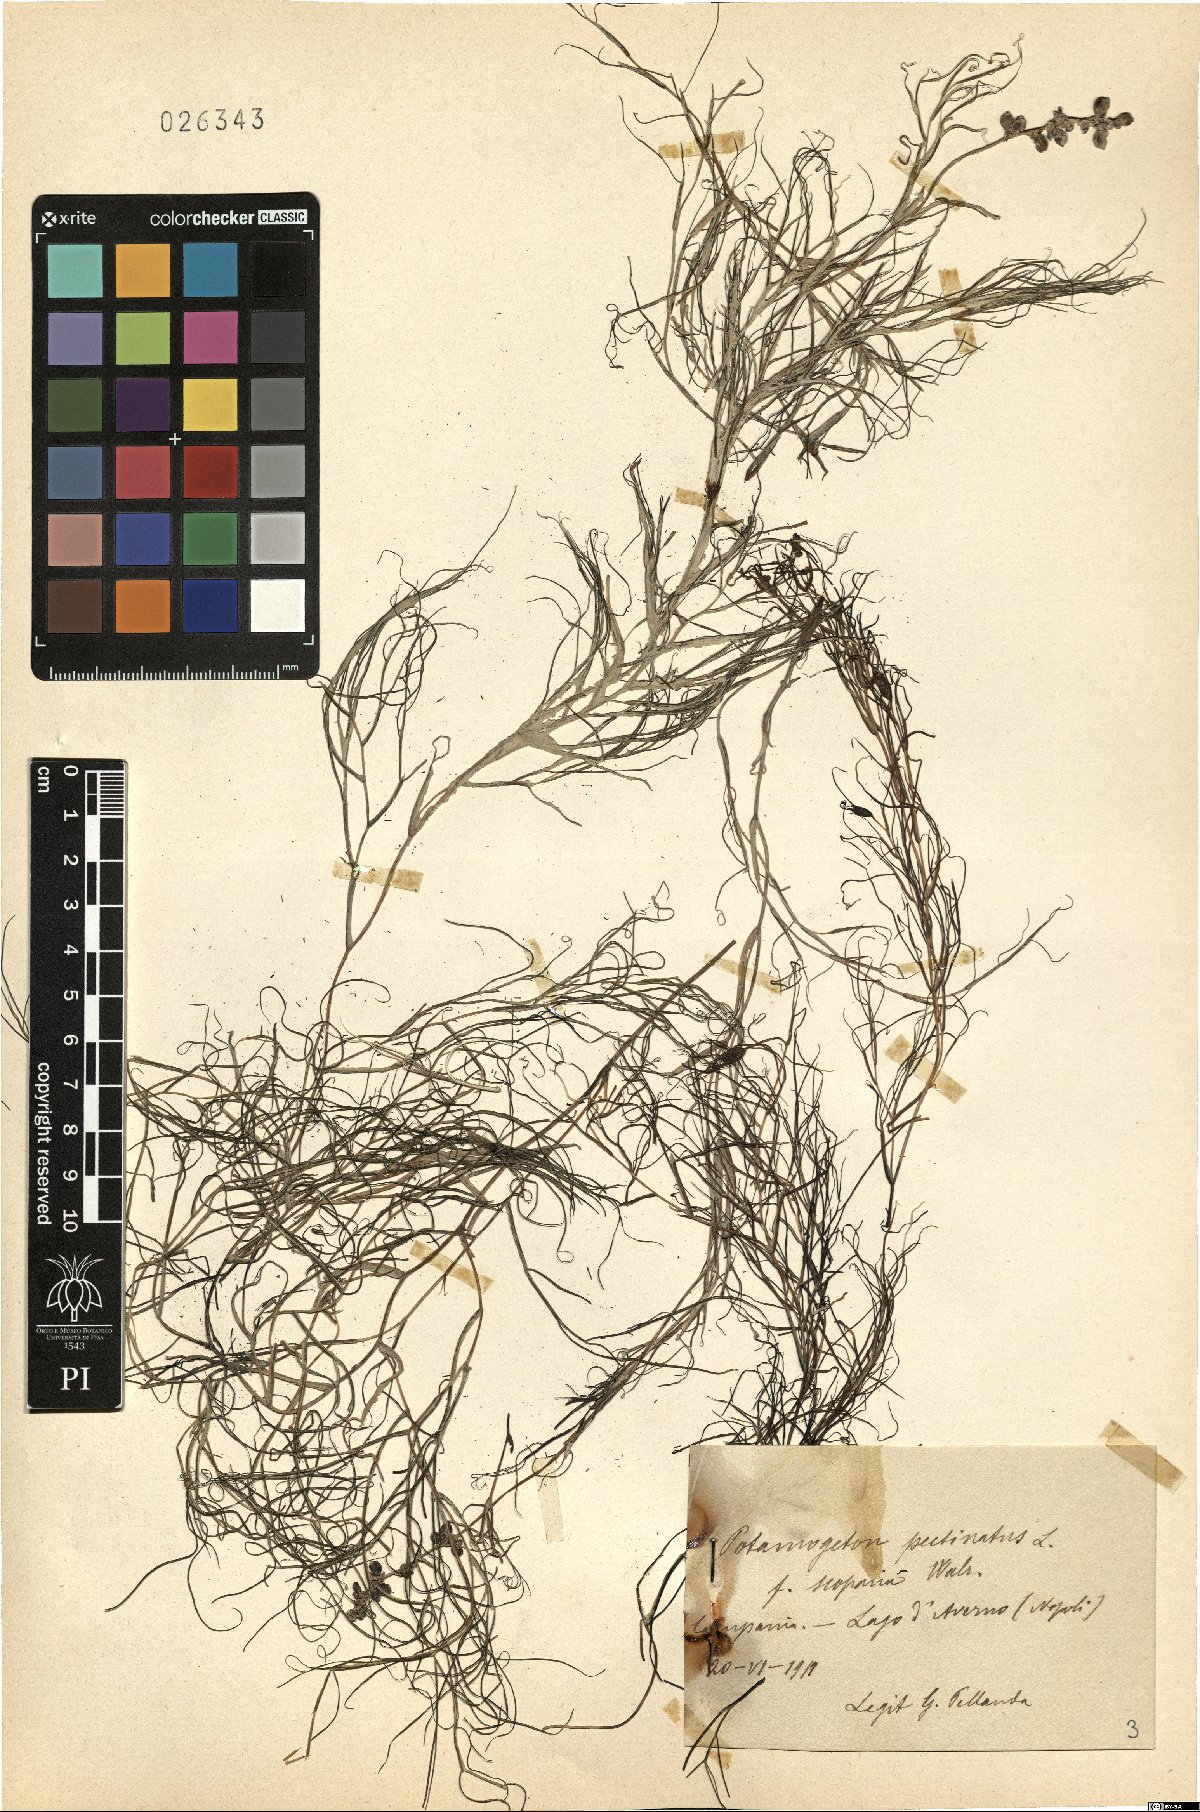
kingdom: Plantae
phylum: Tracheophyta
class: Liliopsida
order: Alismatales
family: Potamogetonaceae
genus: Stuckenia
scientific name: Stuckenia pectinata
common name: Sago pondweed
